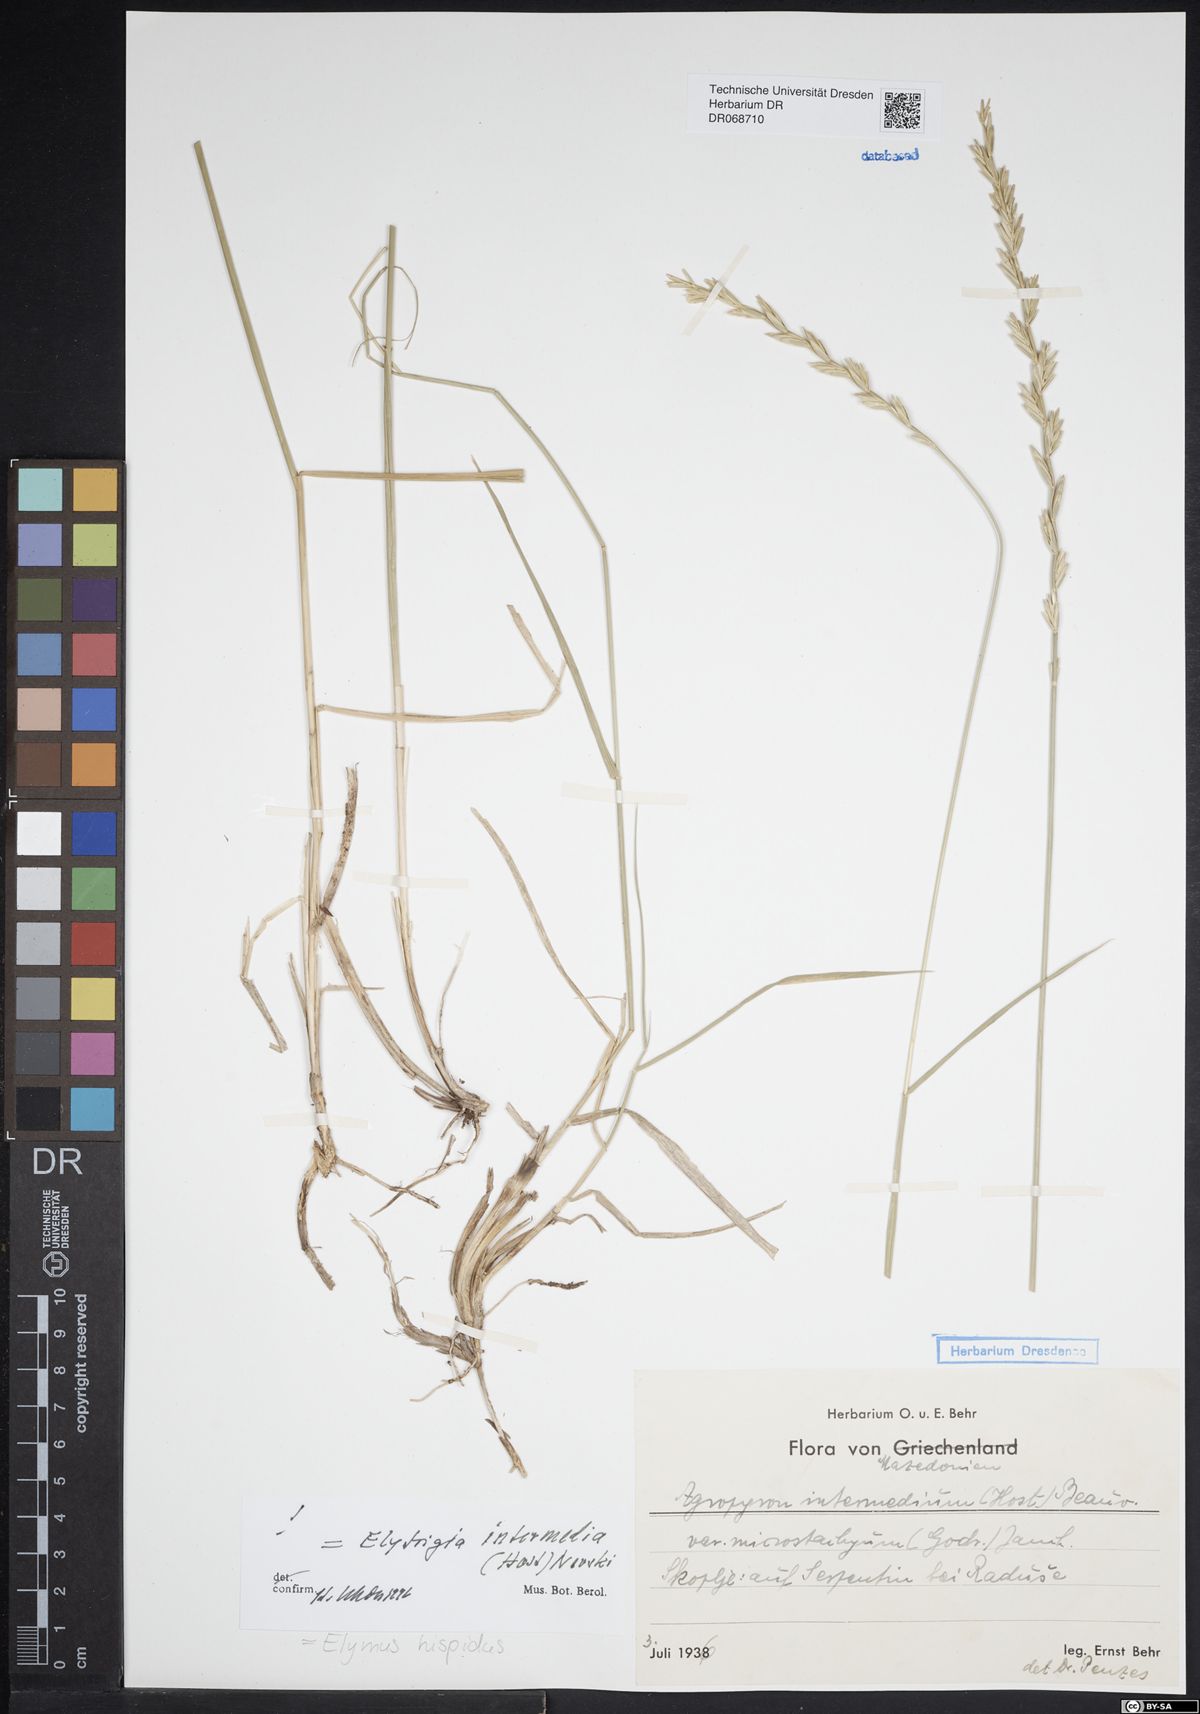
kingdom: Plantae
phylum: Tracheophyta
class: Liliopsida
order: Poales
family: Poaceae
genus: Thinopyrum
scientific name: Thinopyrum intermedium
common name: Intermediate wheatgrass
